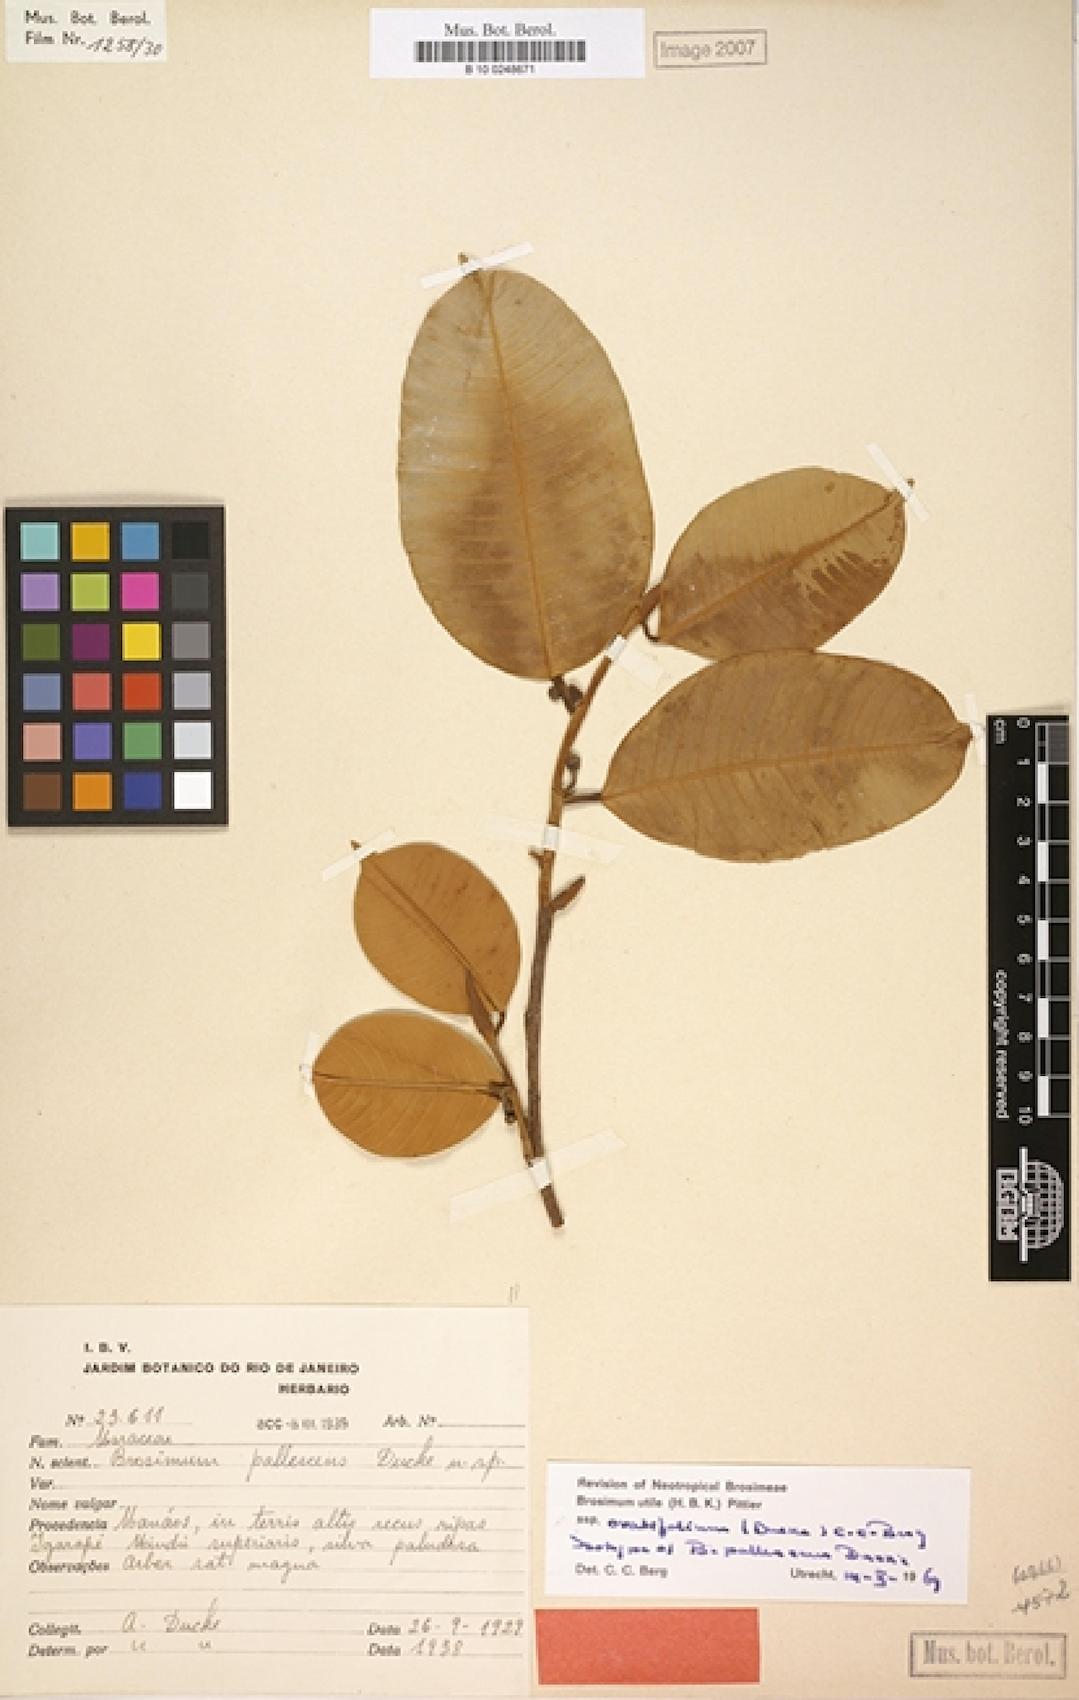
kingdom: Plantae
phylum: Tracheophyta
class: Magnoliopsida
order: Rosales
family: Moraceae
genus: Brosimum
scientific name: Brosimum utile
